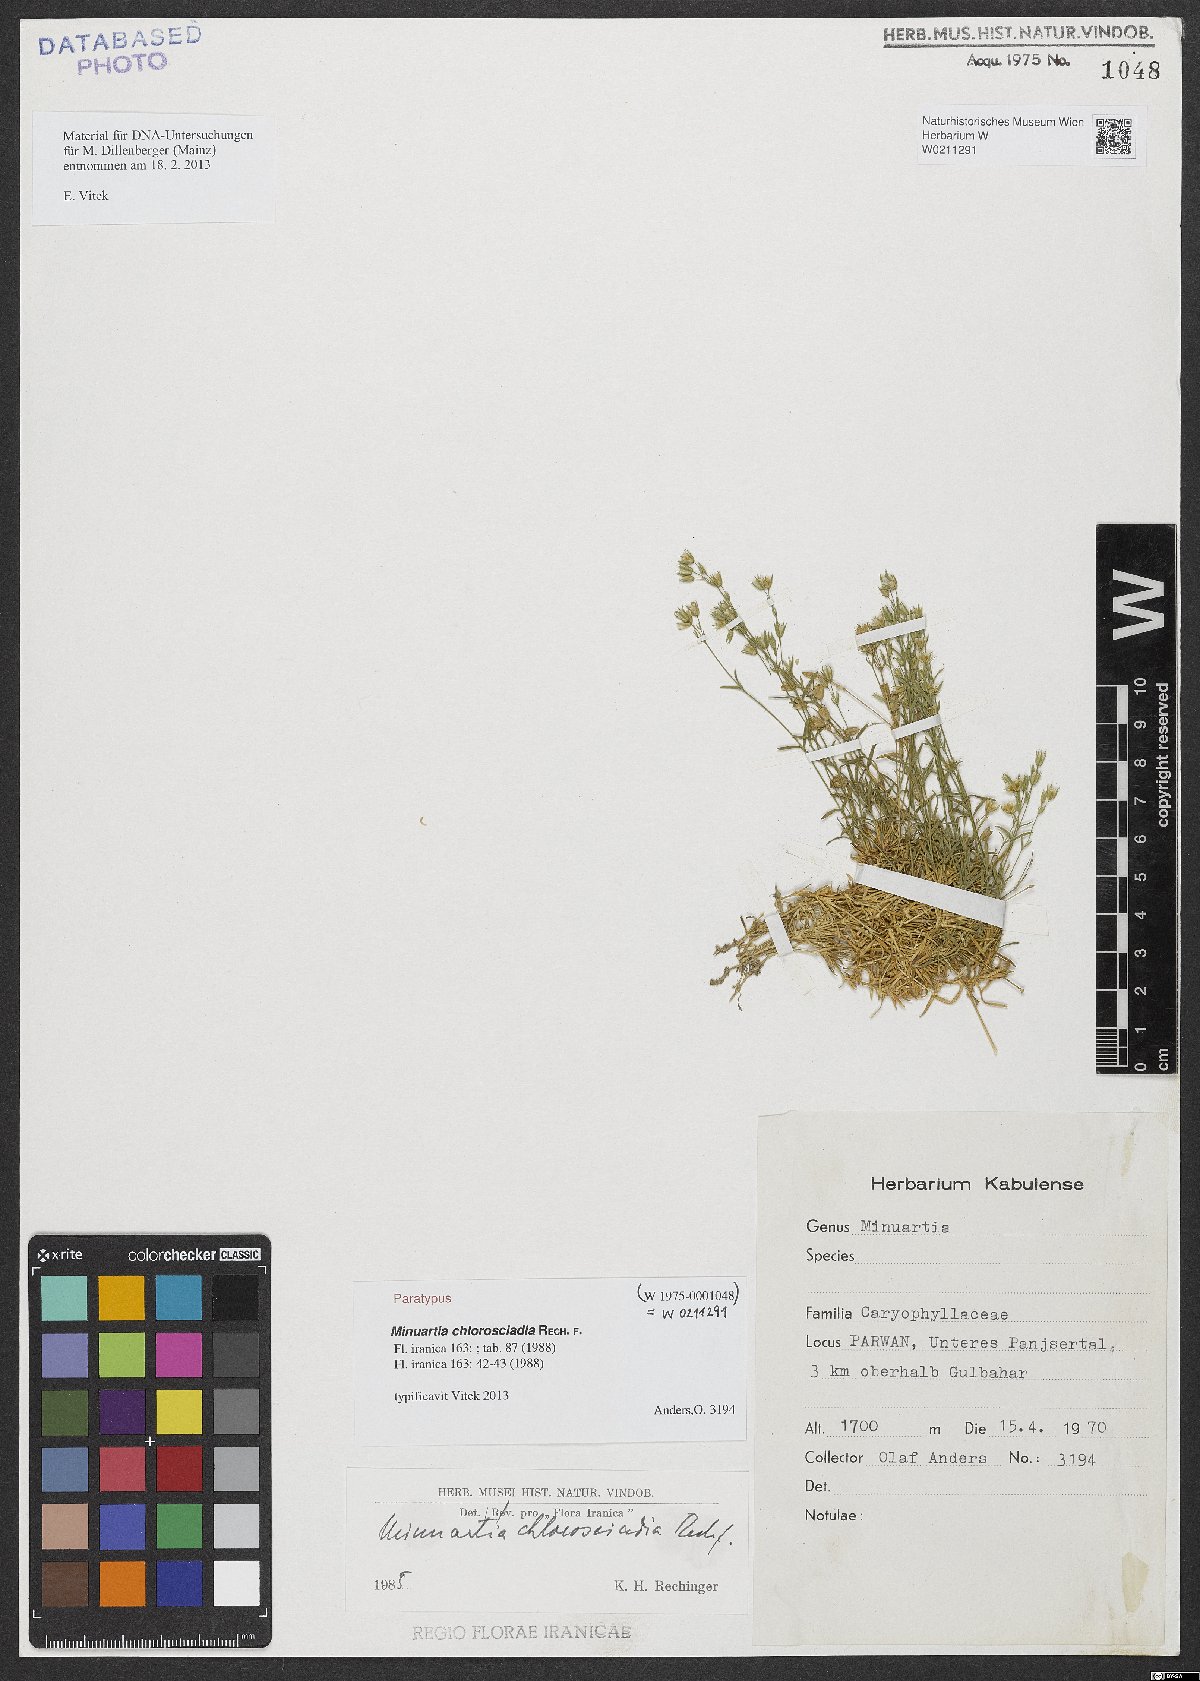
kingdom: Plantae
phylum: Tracheophyta
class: Magnoliopsida
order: Caryophyllales
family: Caryophyllaceae
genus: Sabulina
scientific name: Sabulina chlorosciadia
